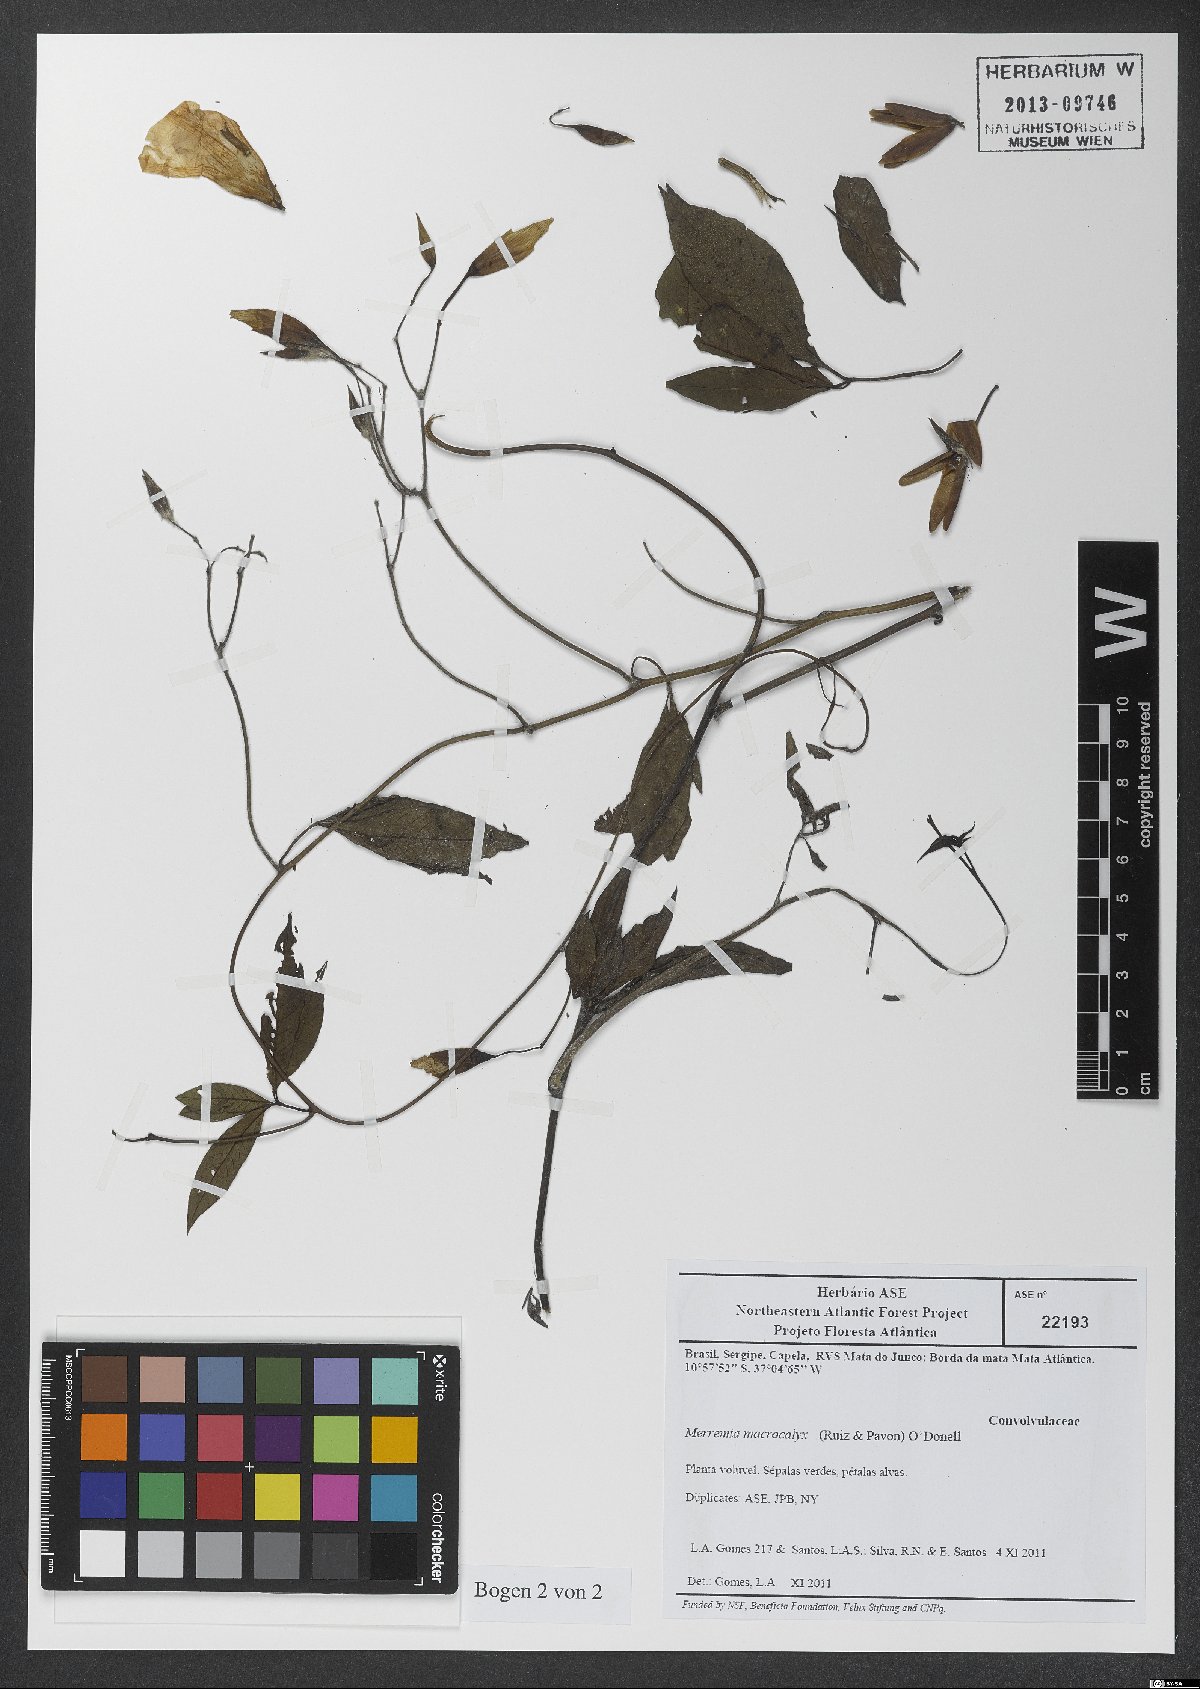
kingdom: Plantae
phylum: Tracheophyta
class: Magnoliopsida
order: Solanales
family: Convolvulaceae
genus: Distimake
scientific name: Distimake macrocalyx
